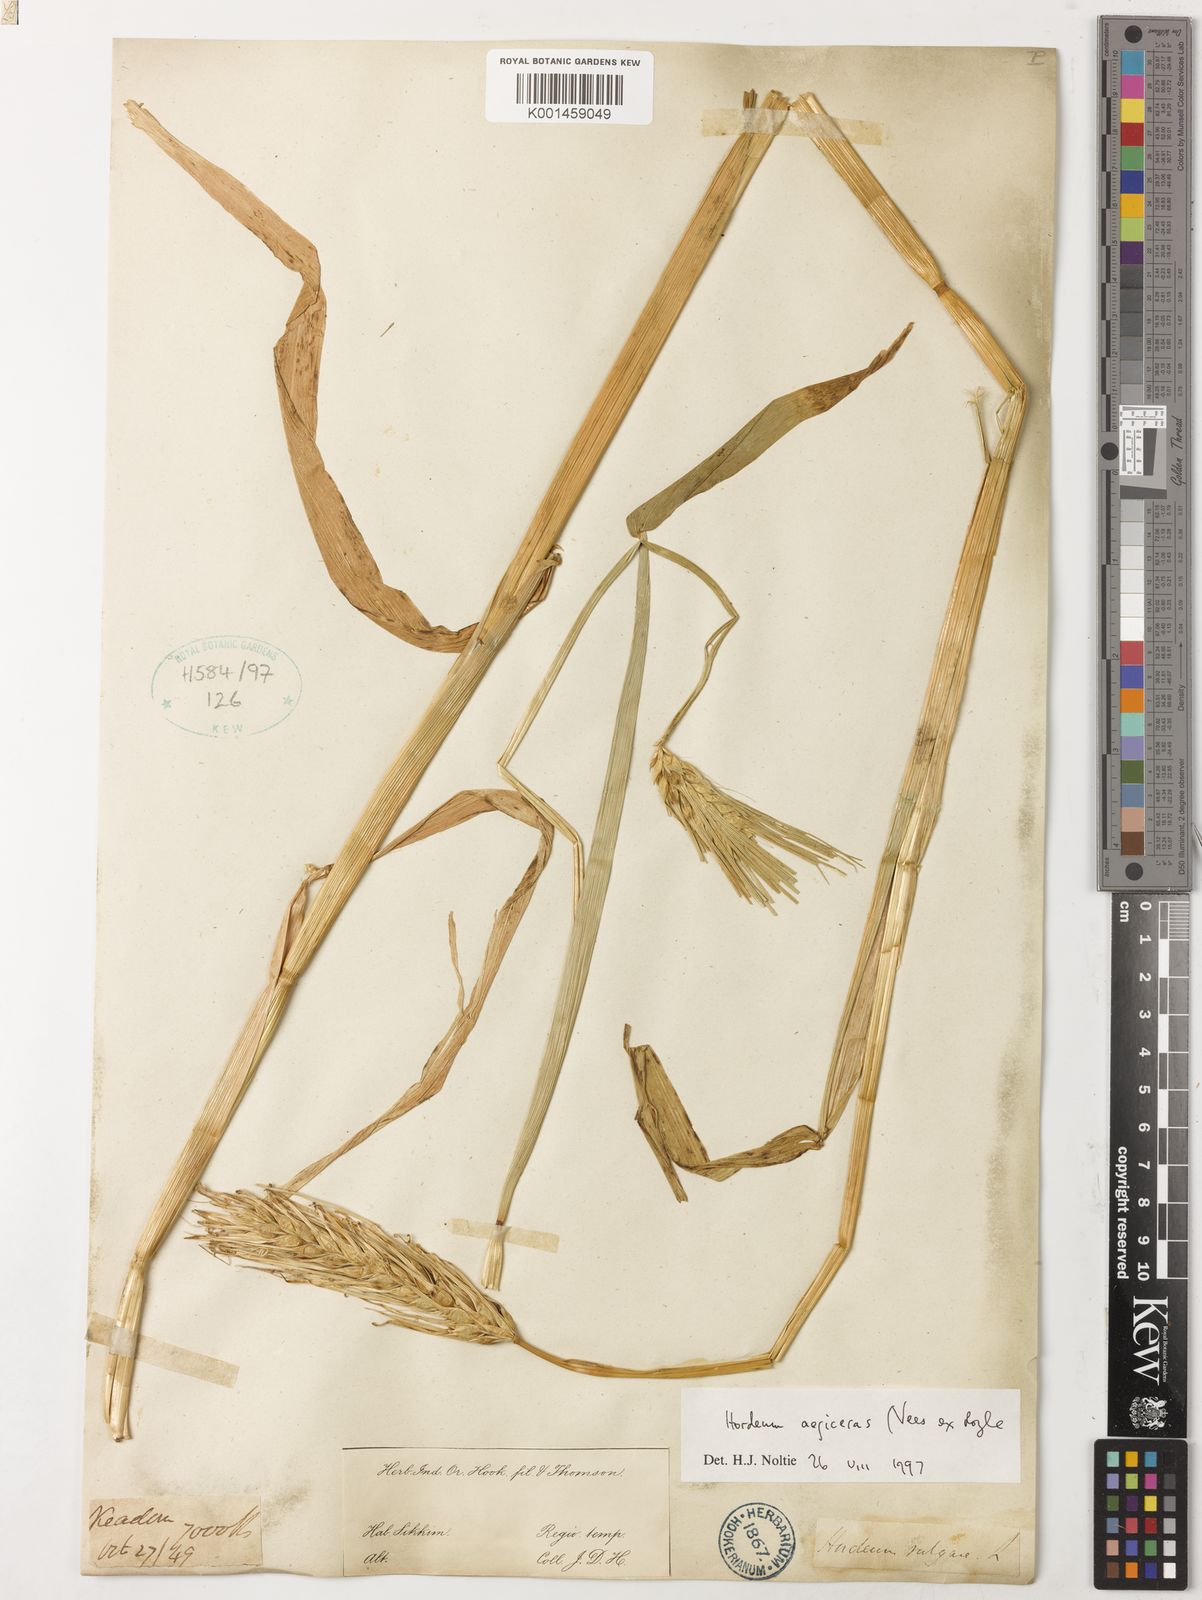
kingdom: Plantae
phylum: Tracheophyta
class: Liliopsida
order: Poales
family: Poaceae
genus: Hordeum
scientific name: Hordeum vulgare
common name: Common barley
